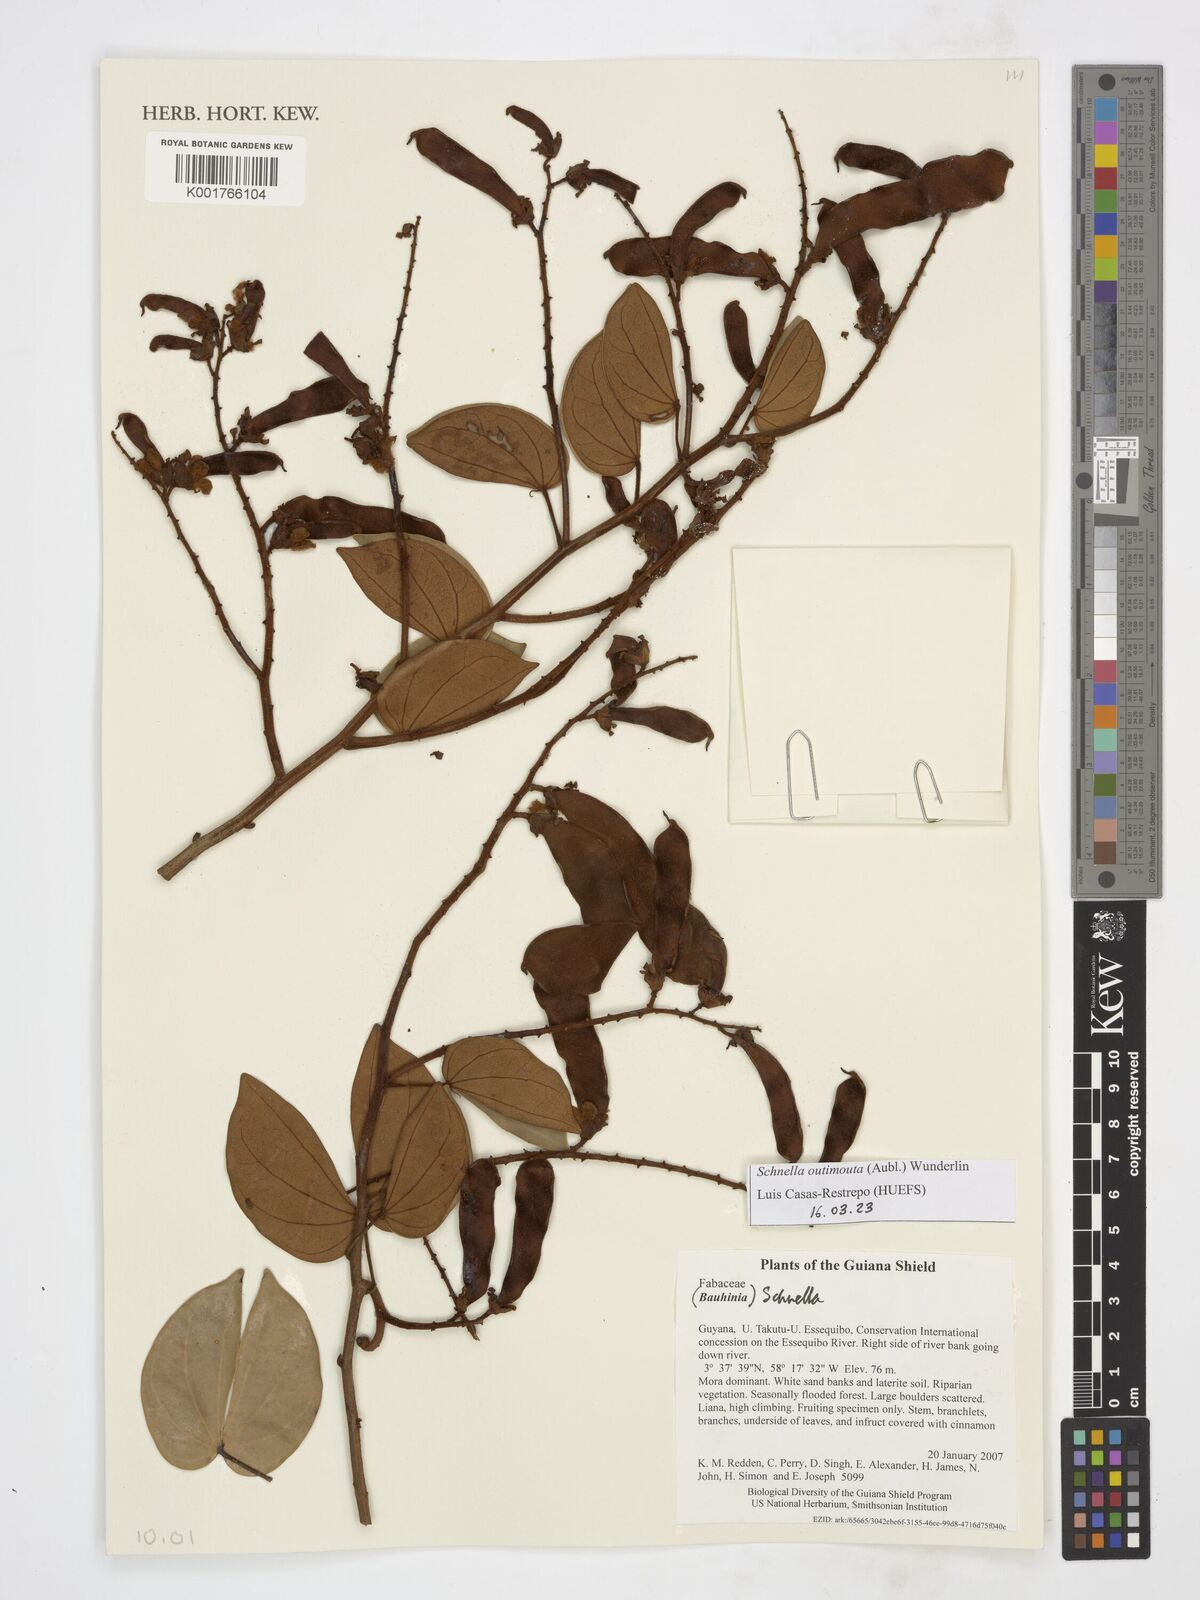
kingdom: Plantae
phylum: Tracheophyta
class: Magnoliopsida
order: Fabales
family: Fabaceae
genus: Schnella
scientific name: Schnella outimouta
